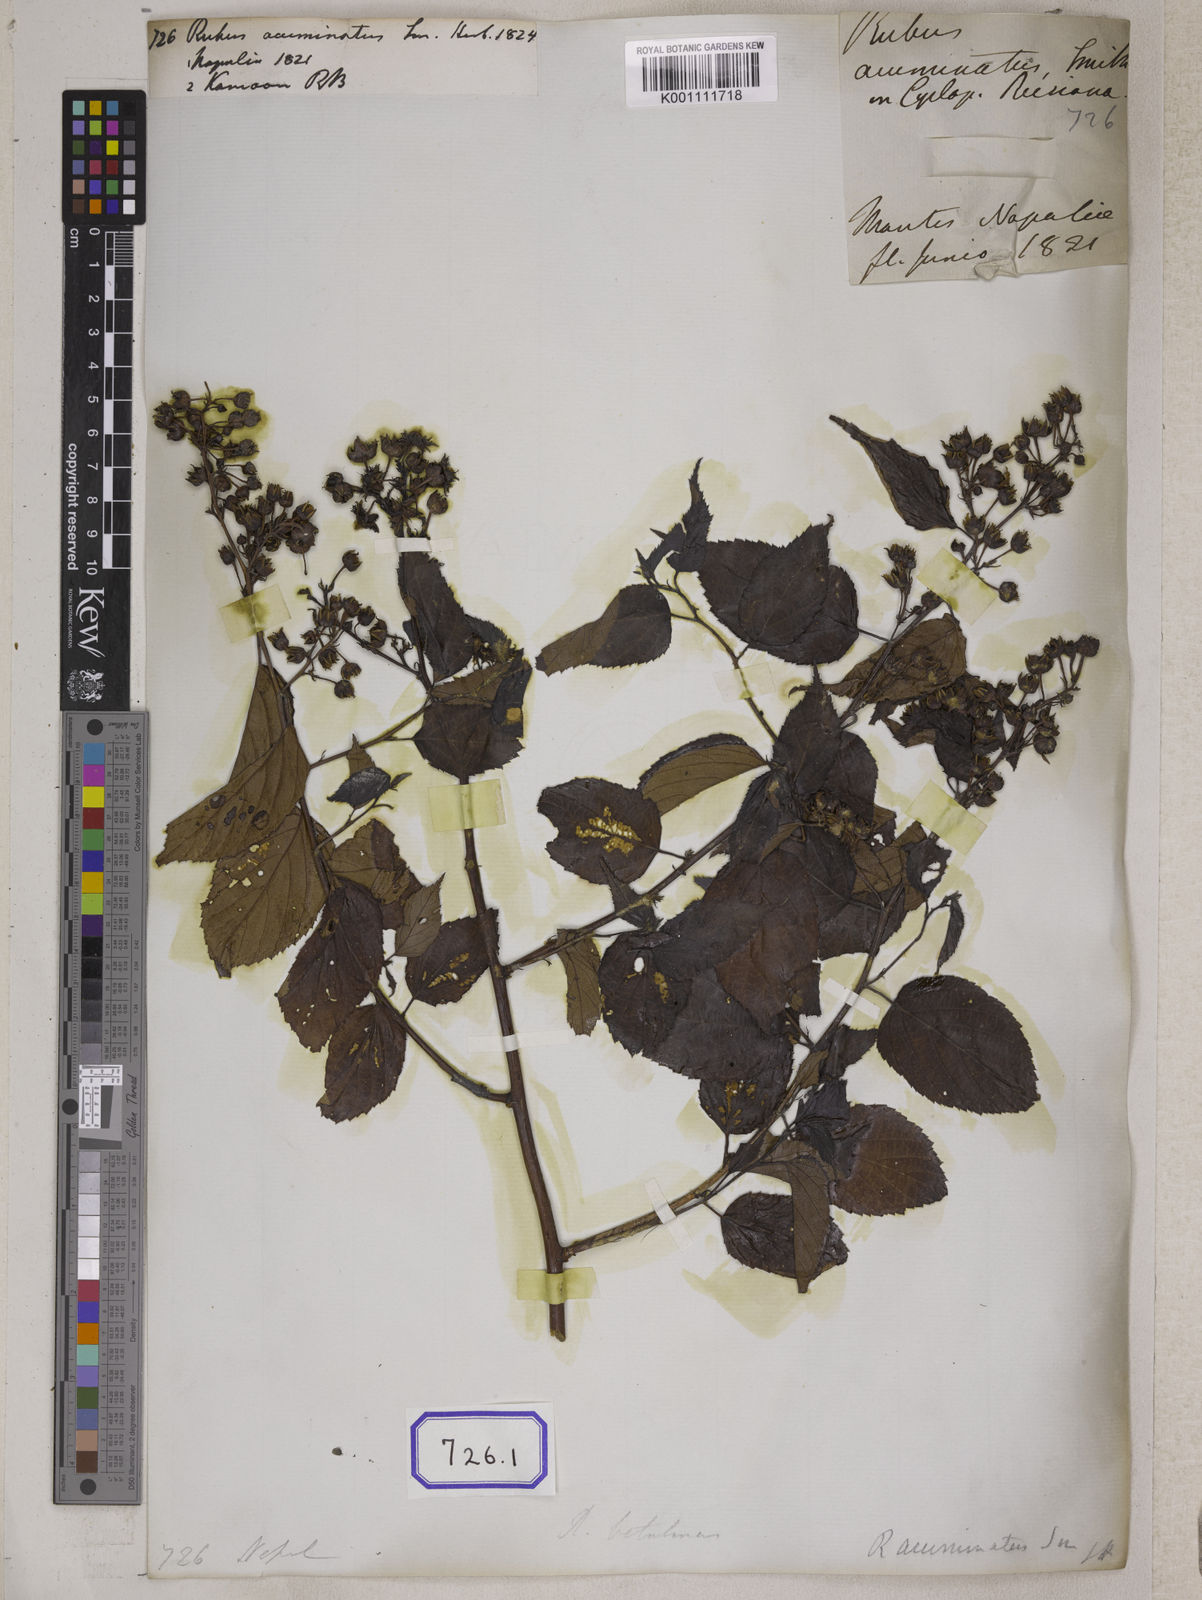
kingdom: Plantae
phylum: Tracheophyta
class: Magnoliopsida
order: Rosales
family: Rosaceae
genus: Rubus
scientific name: Rubus acuminatus
